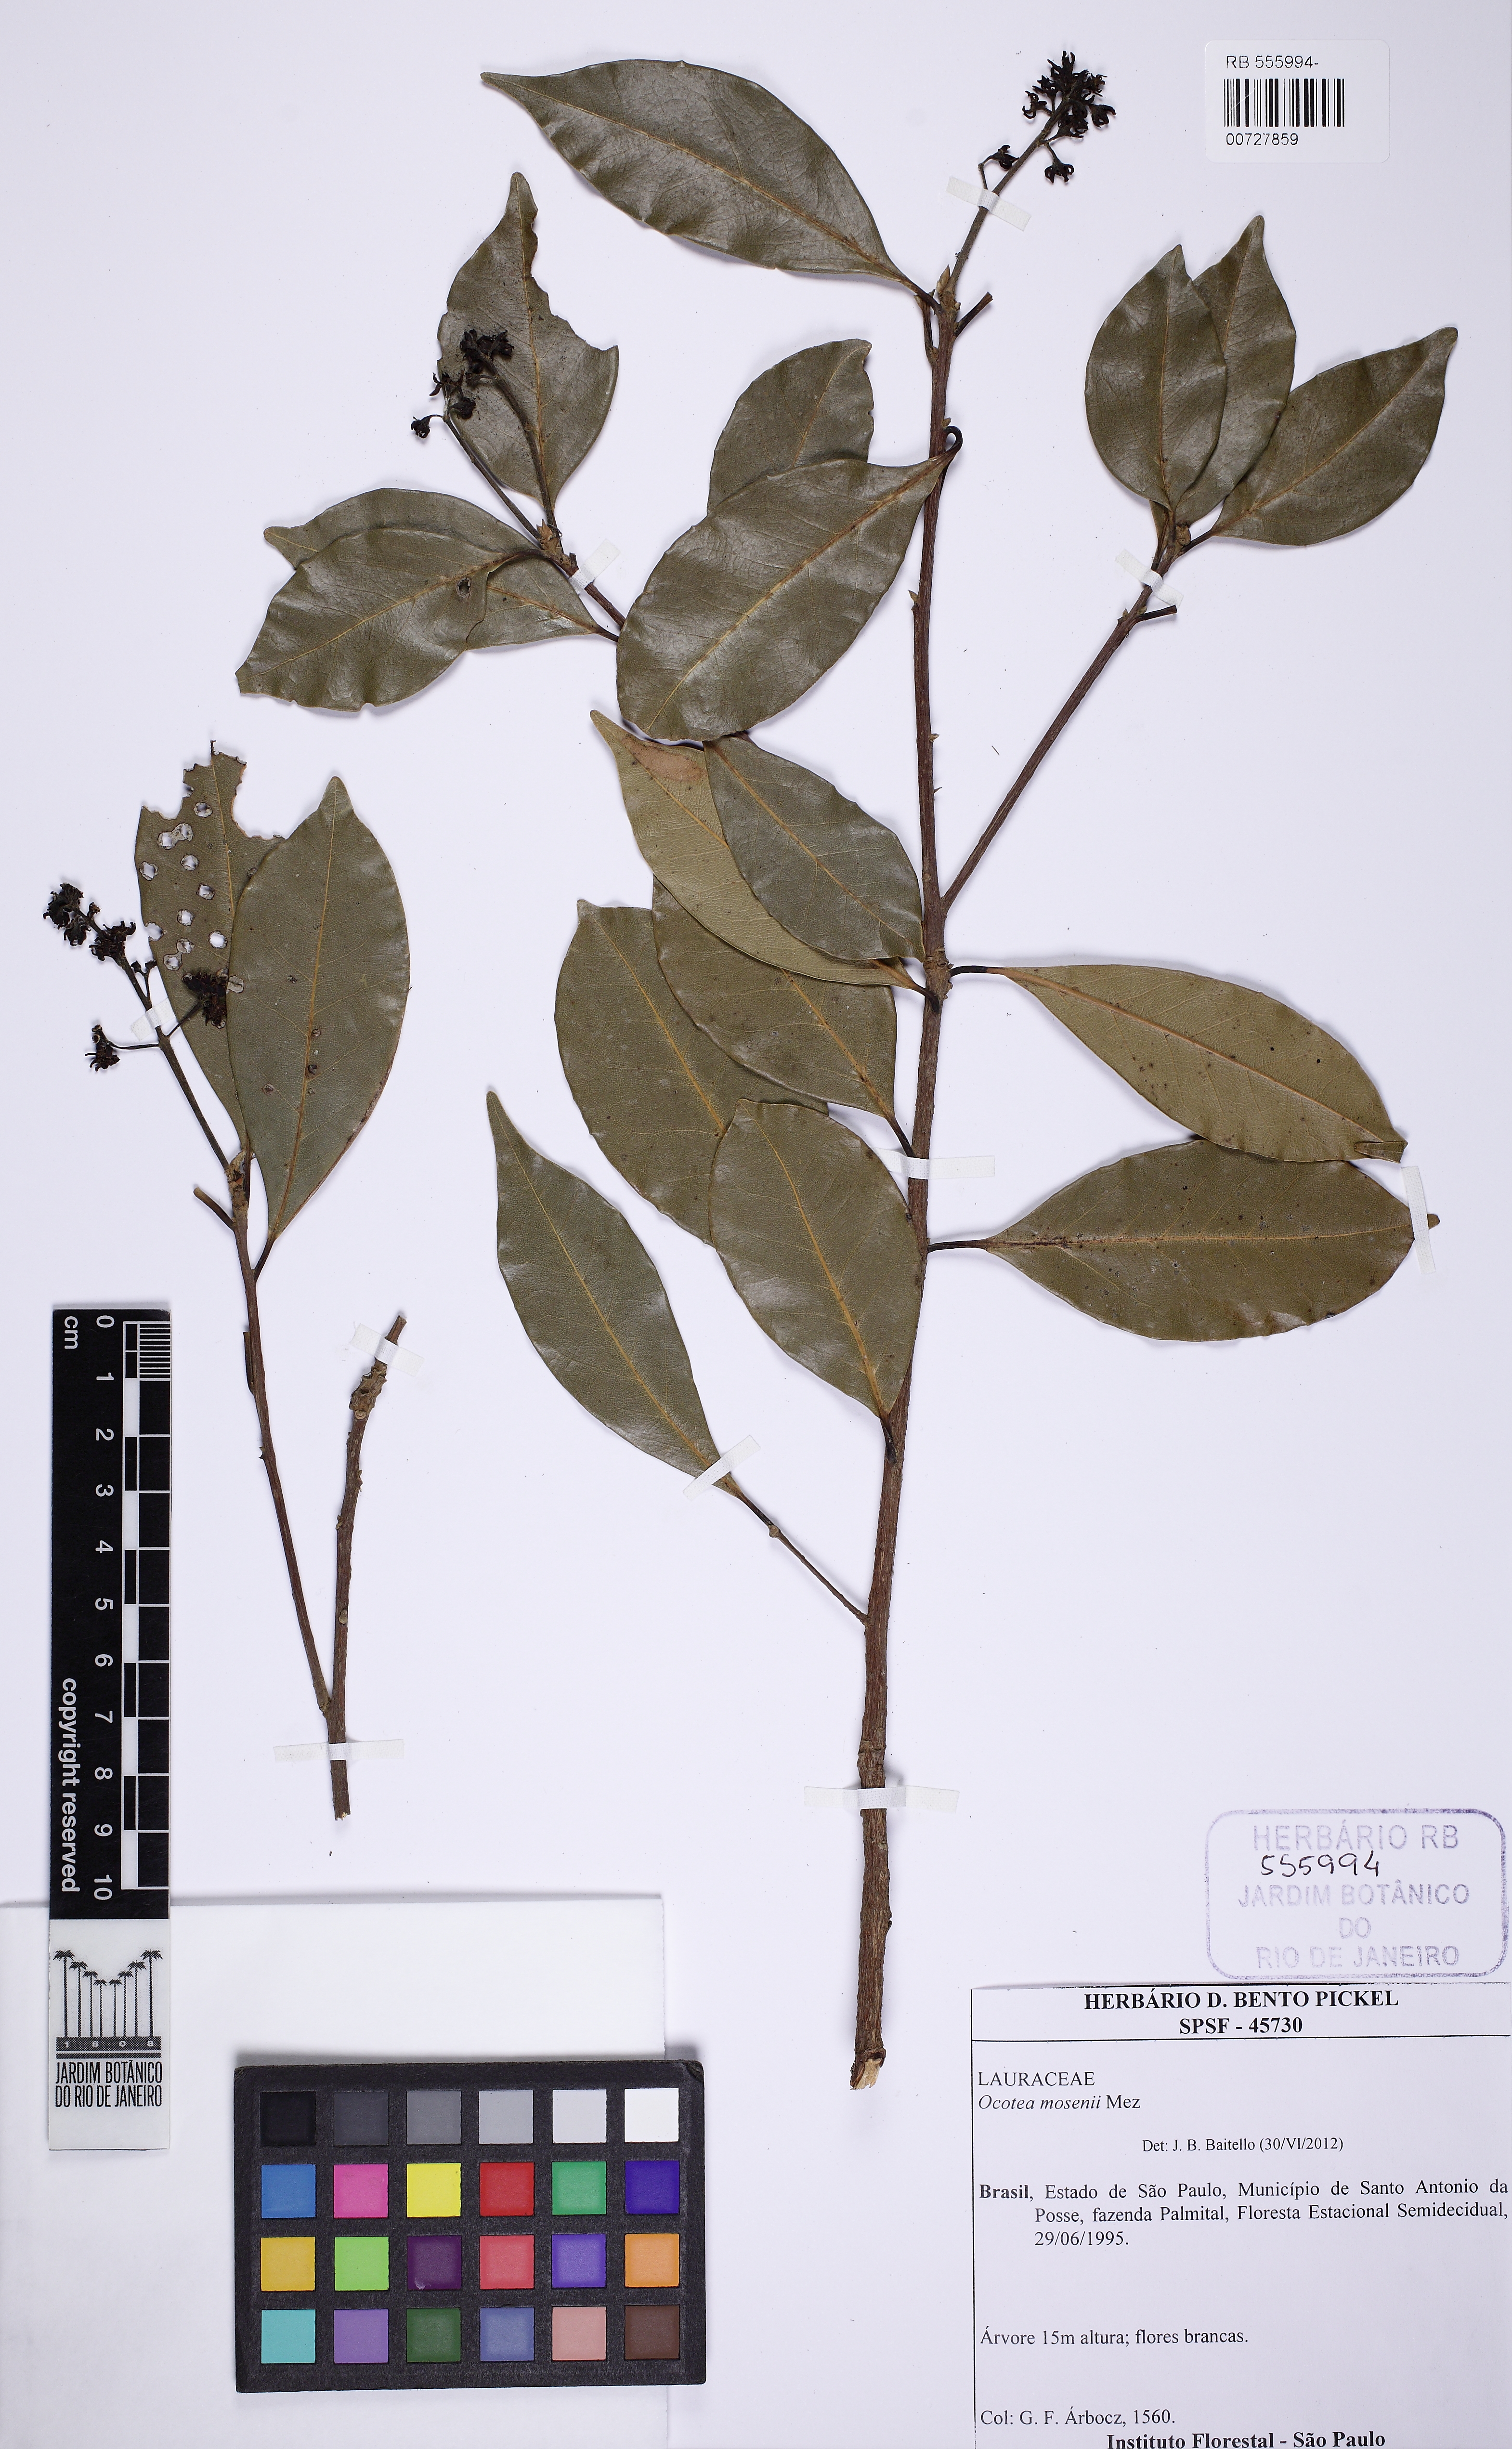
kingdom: Plantae
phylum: Tracheophyta
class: Magnoliopsida
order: Laurales
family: Lauraceae
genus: Ocotea
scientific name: Ocotea mosenii
